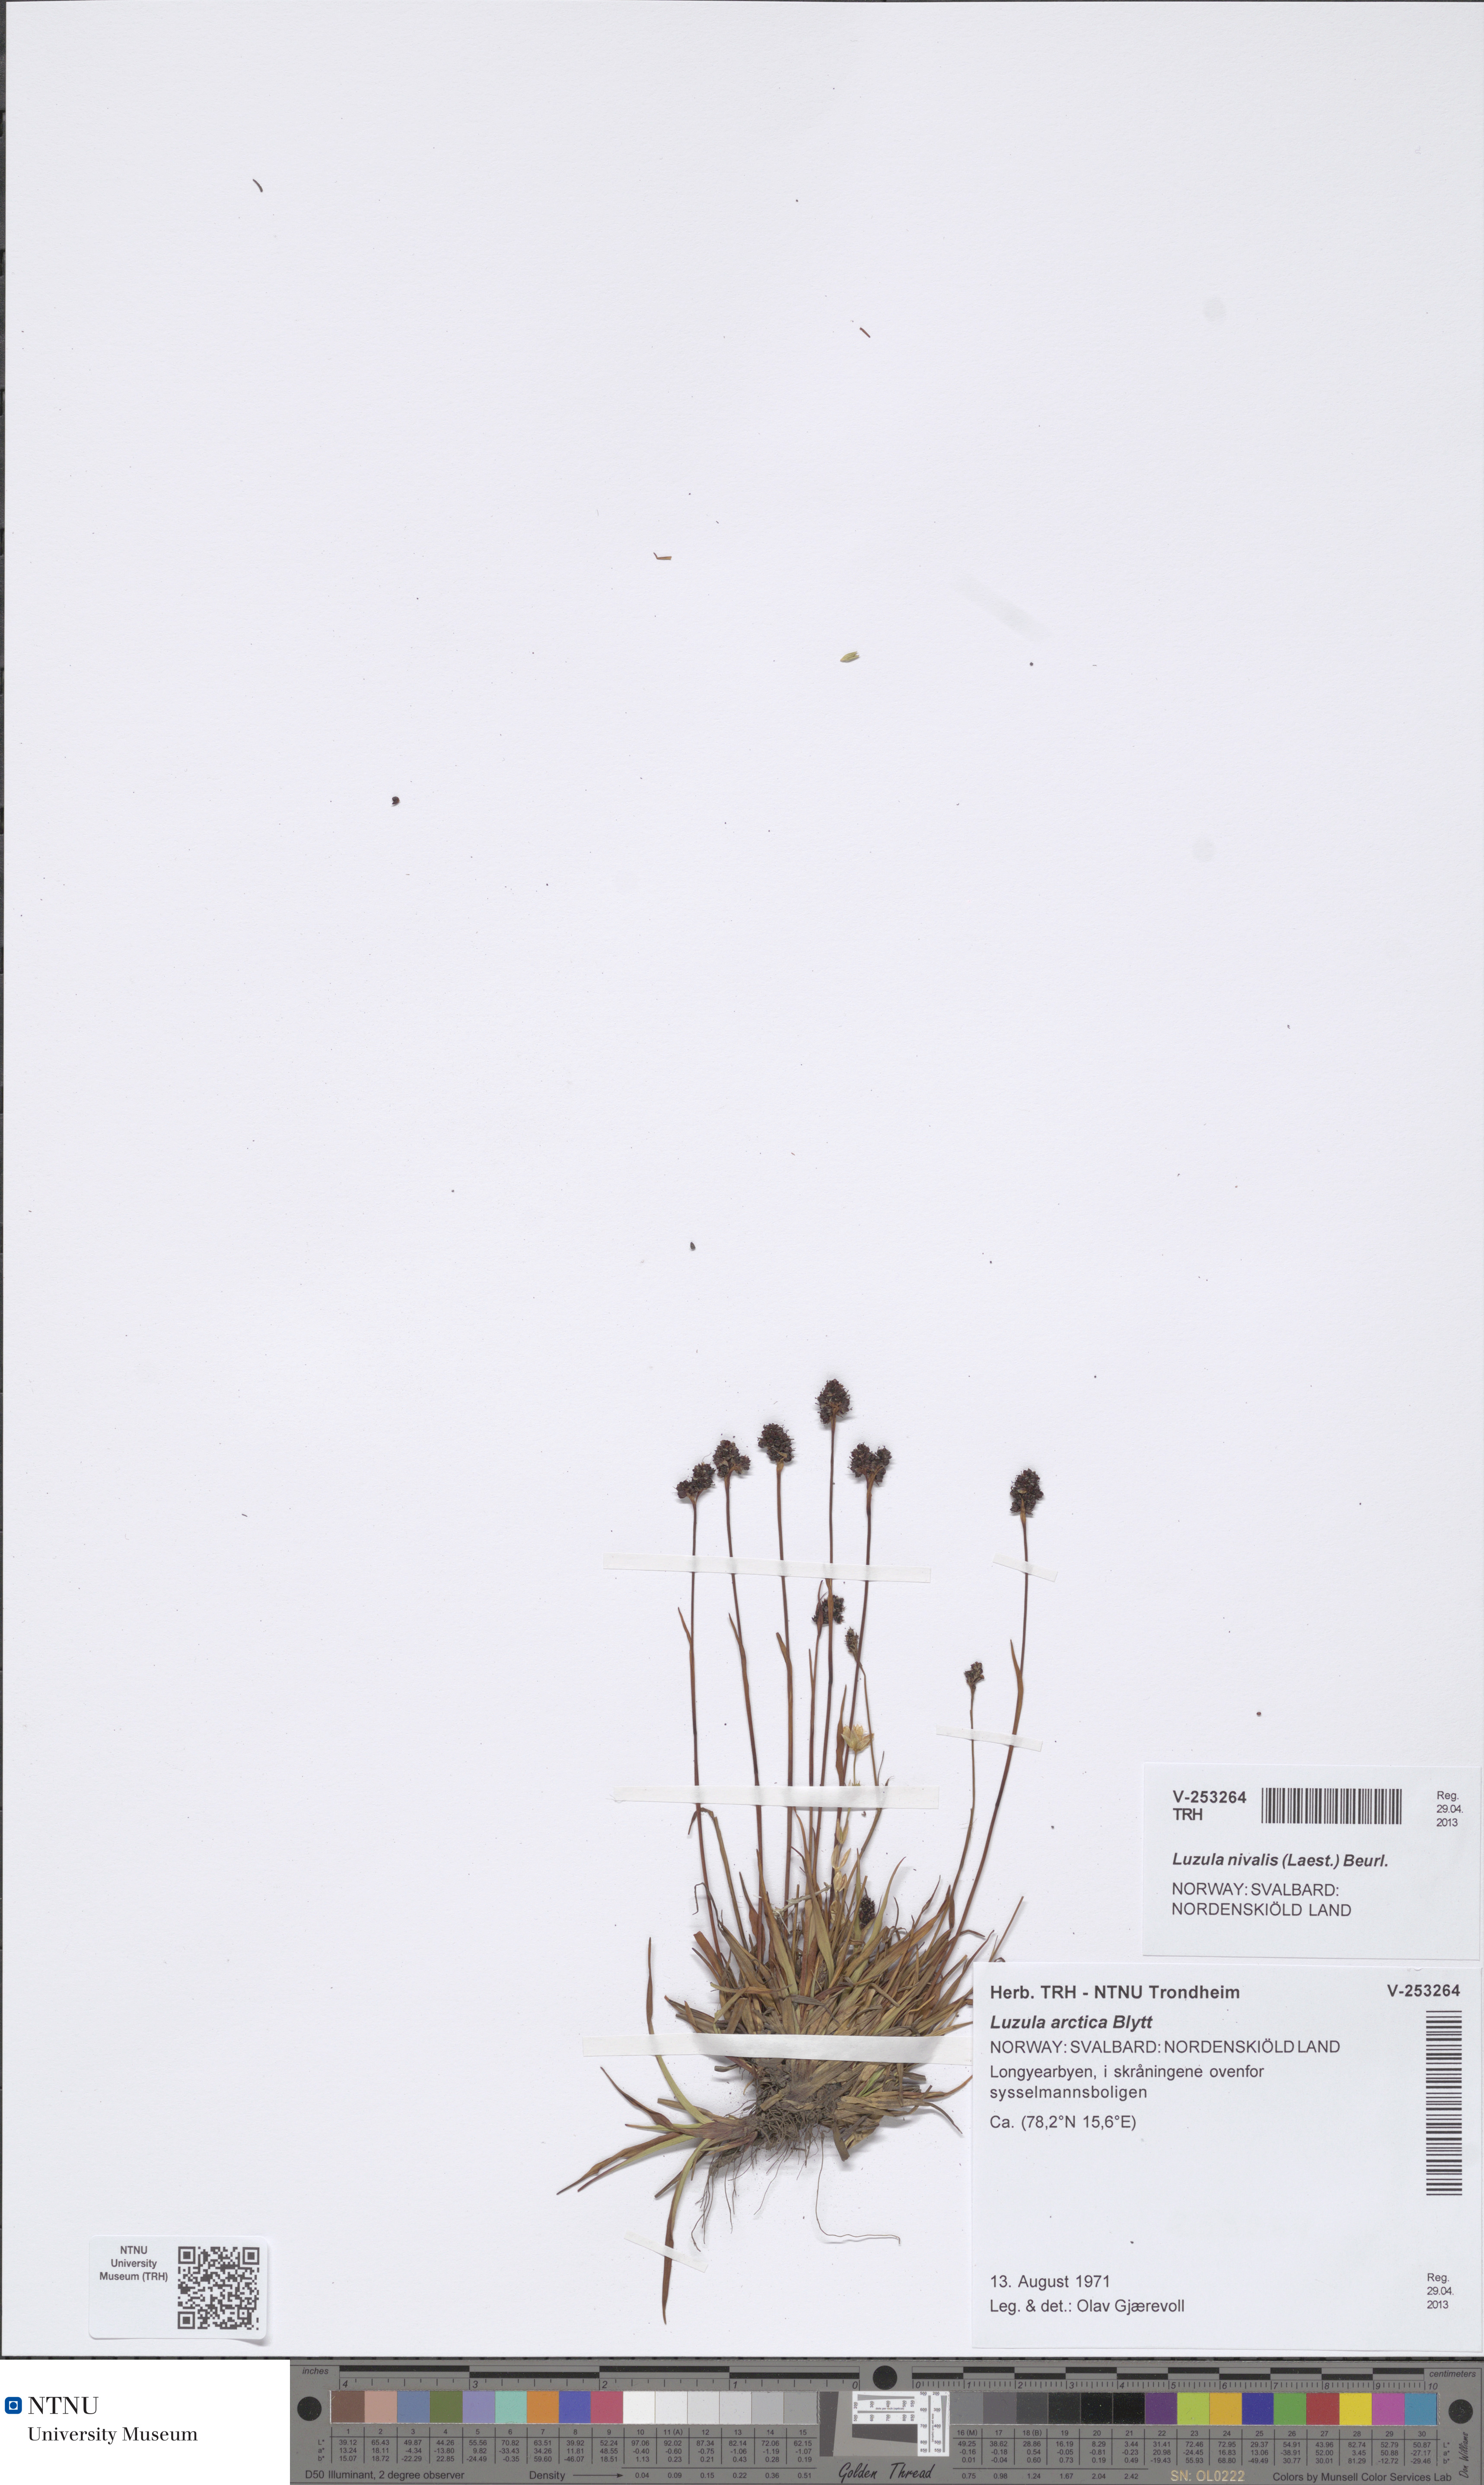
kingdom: Plantae
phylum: Tracheophyta
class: Liliopsida
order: Poales
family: Juncaceae
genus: Luzula
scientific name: Luzula nivalis
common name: Arctic woodrush
